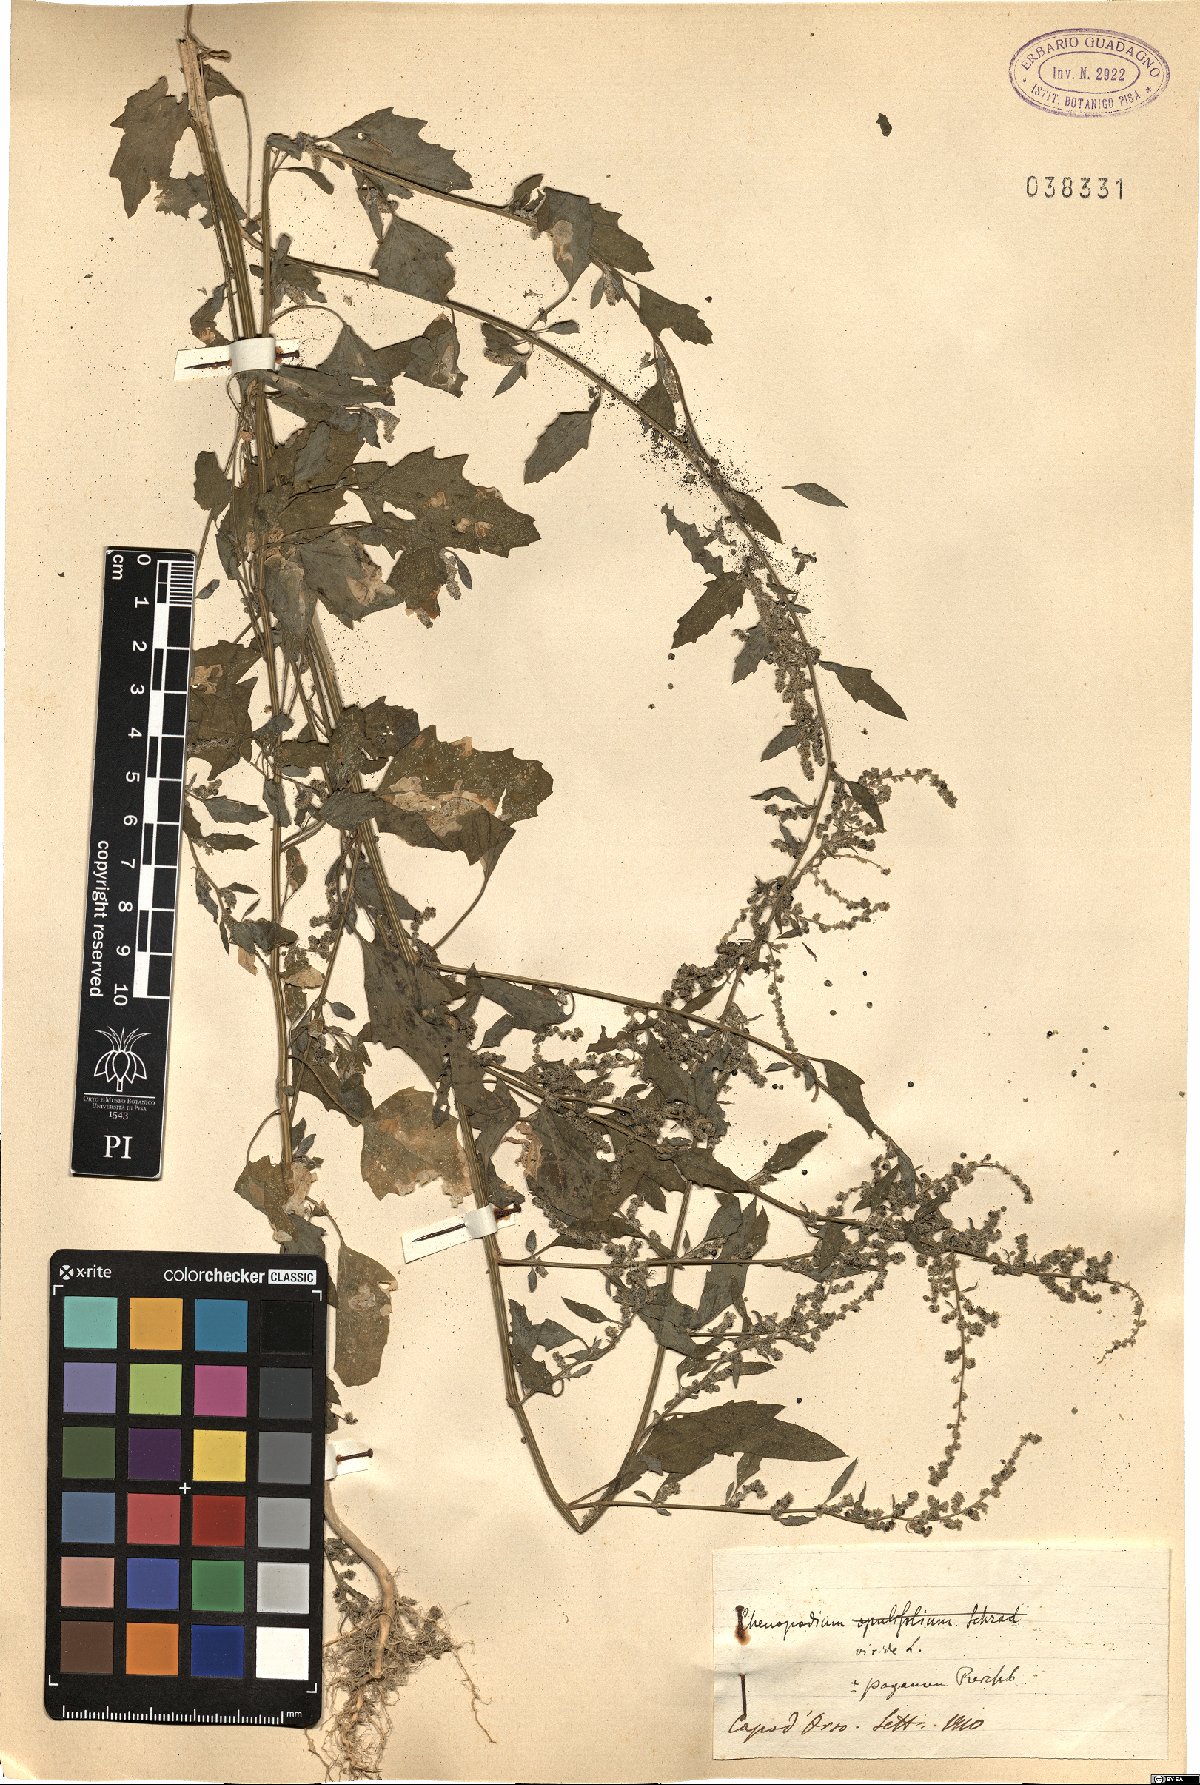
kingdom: Plantae
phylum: Tracheophyta
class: Magnoliopsida
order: Caryophyllales
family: Amaranthaceae
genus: Chenopodium
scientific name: Chenopodium album
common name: Fat-hen
